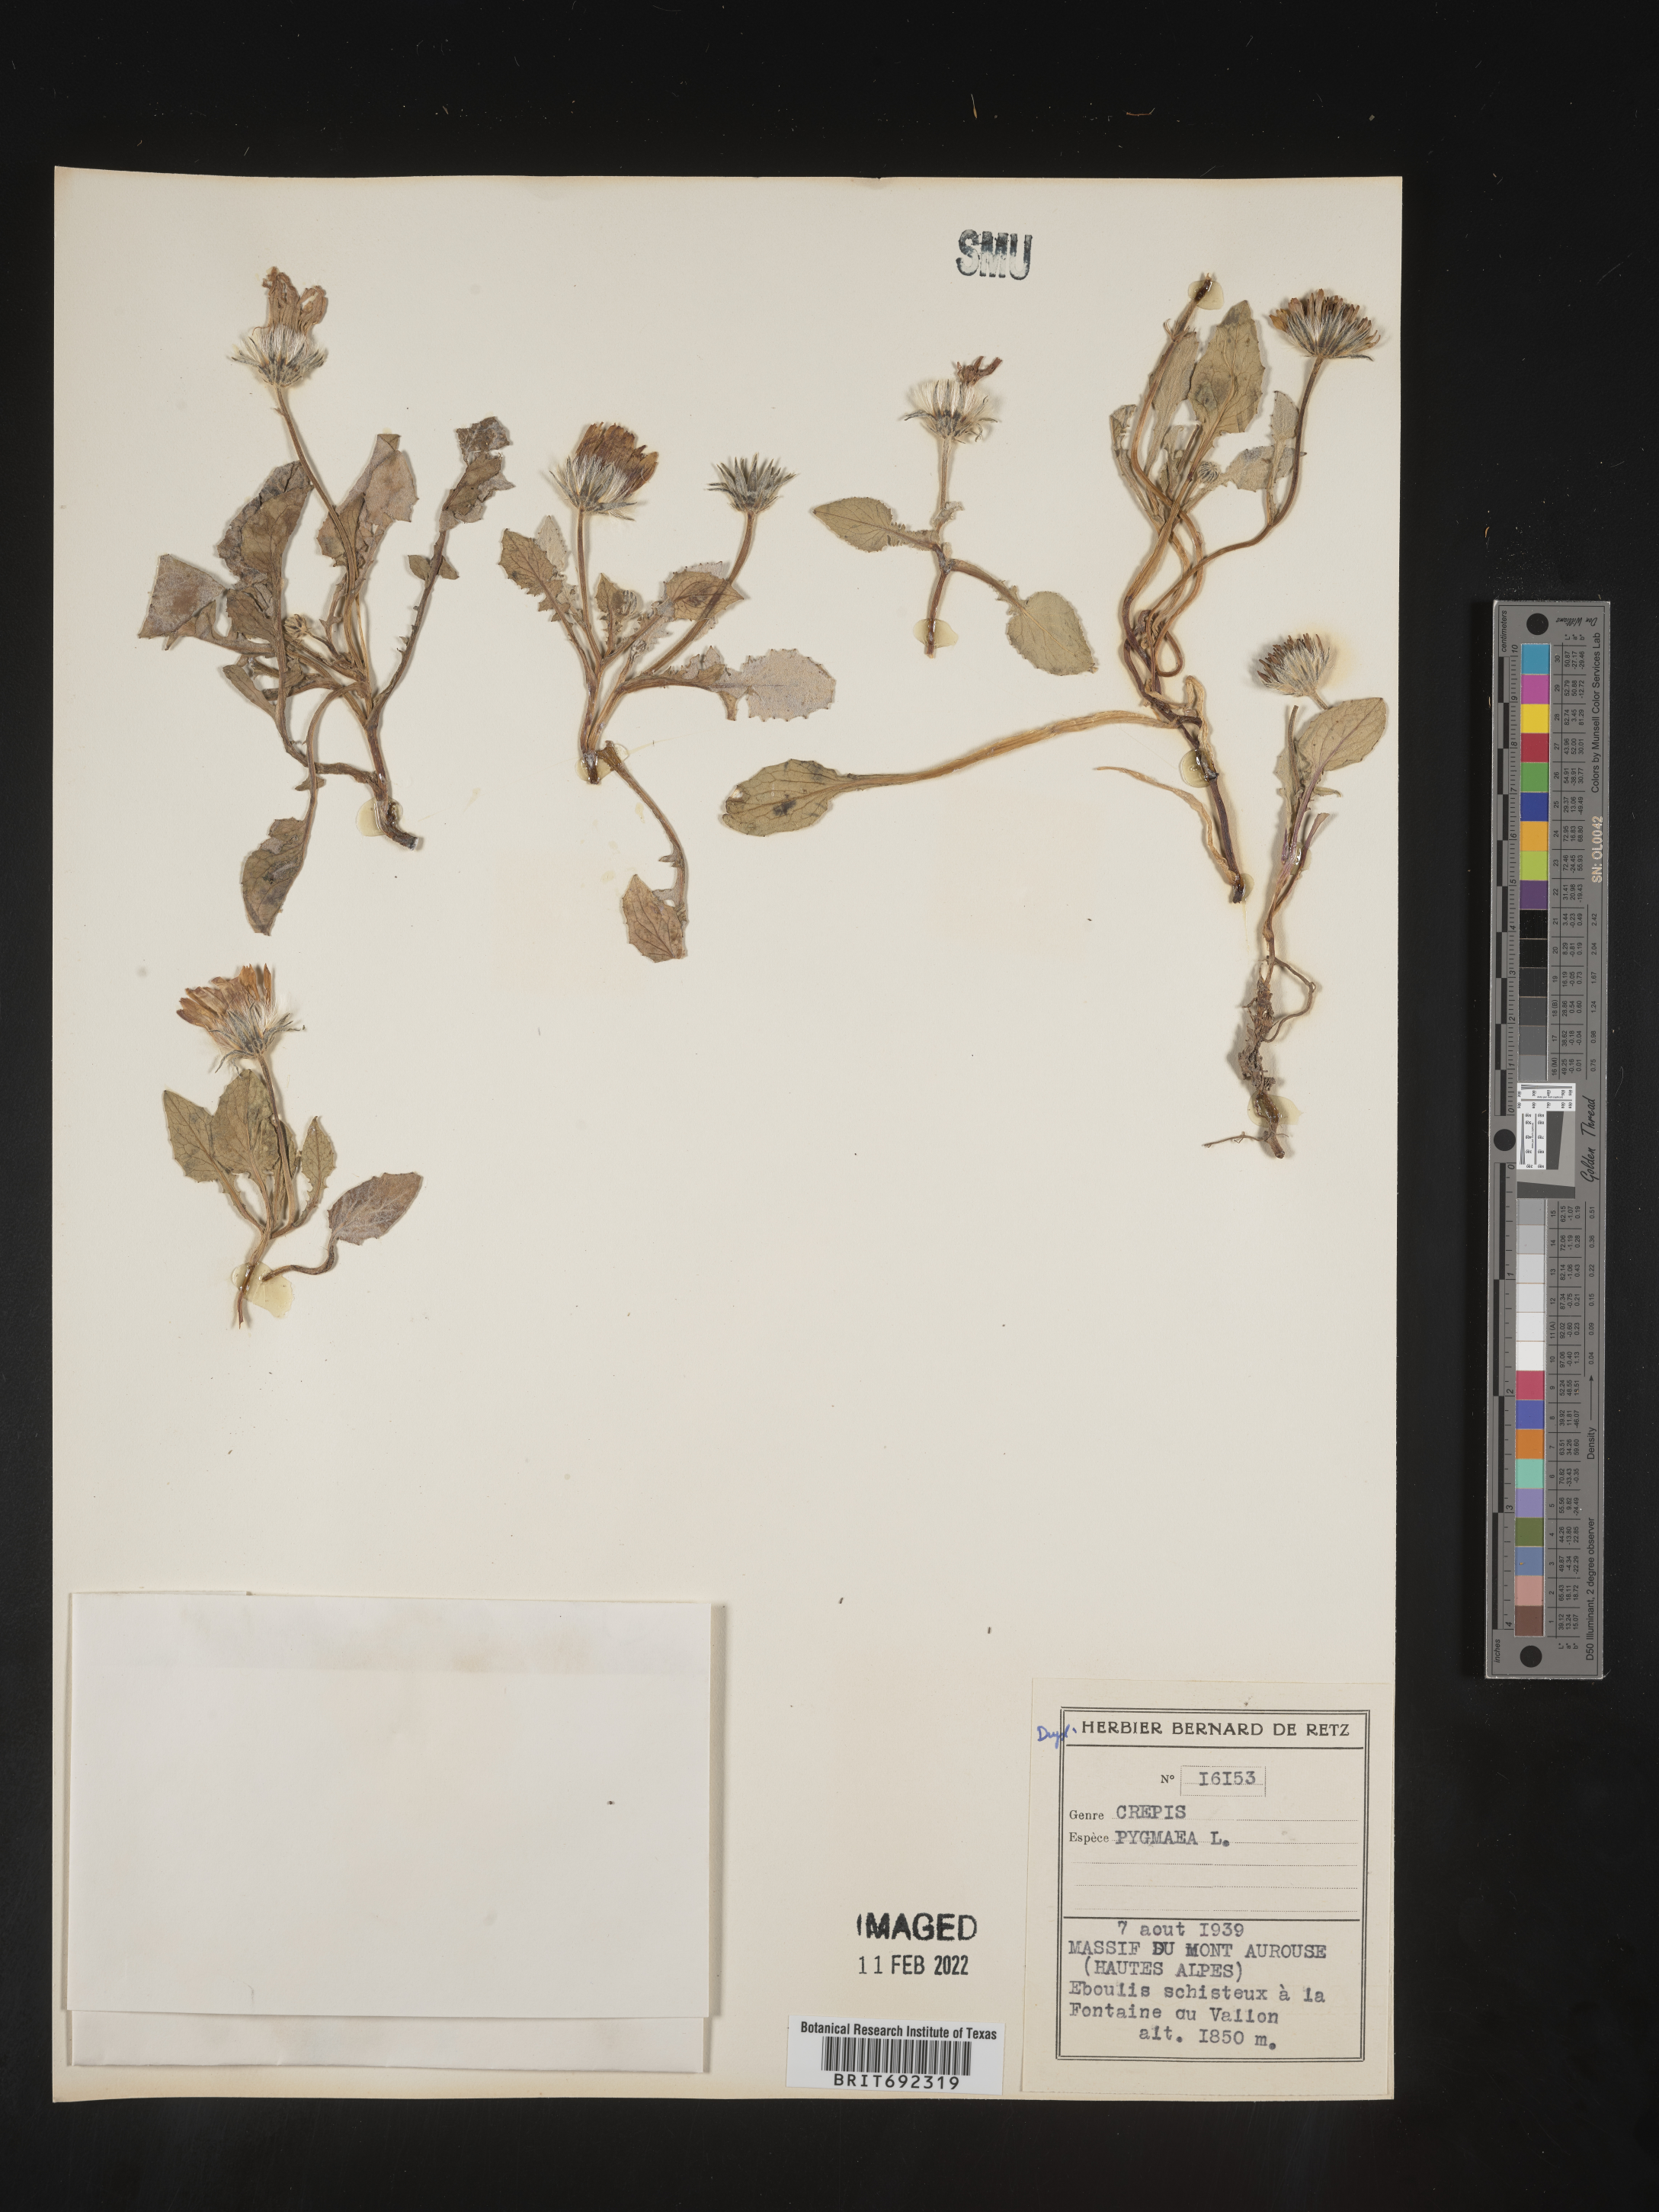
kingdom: Plantae
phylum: Tracheophyta
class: Magnoliopsida
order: Asterales
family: Asteraceae
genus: Crepis
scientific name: Crepis
